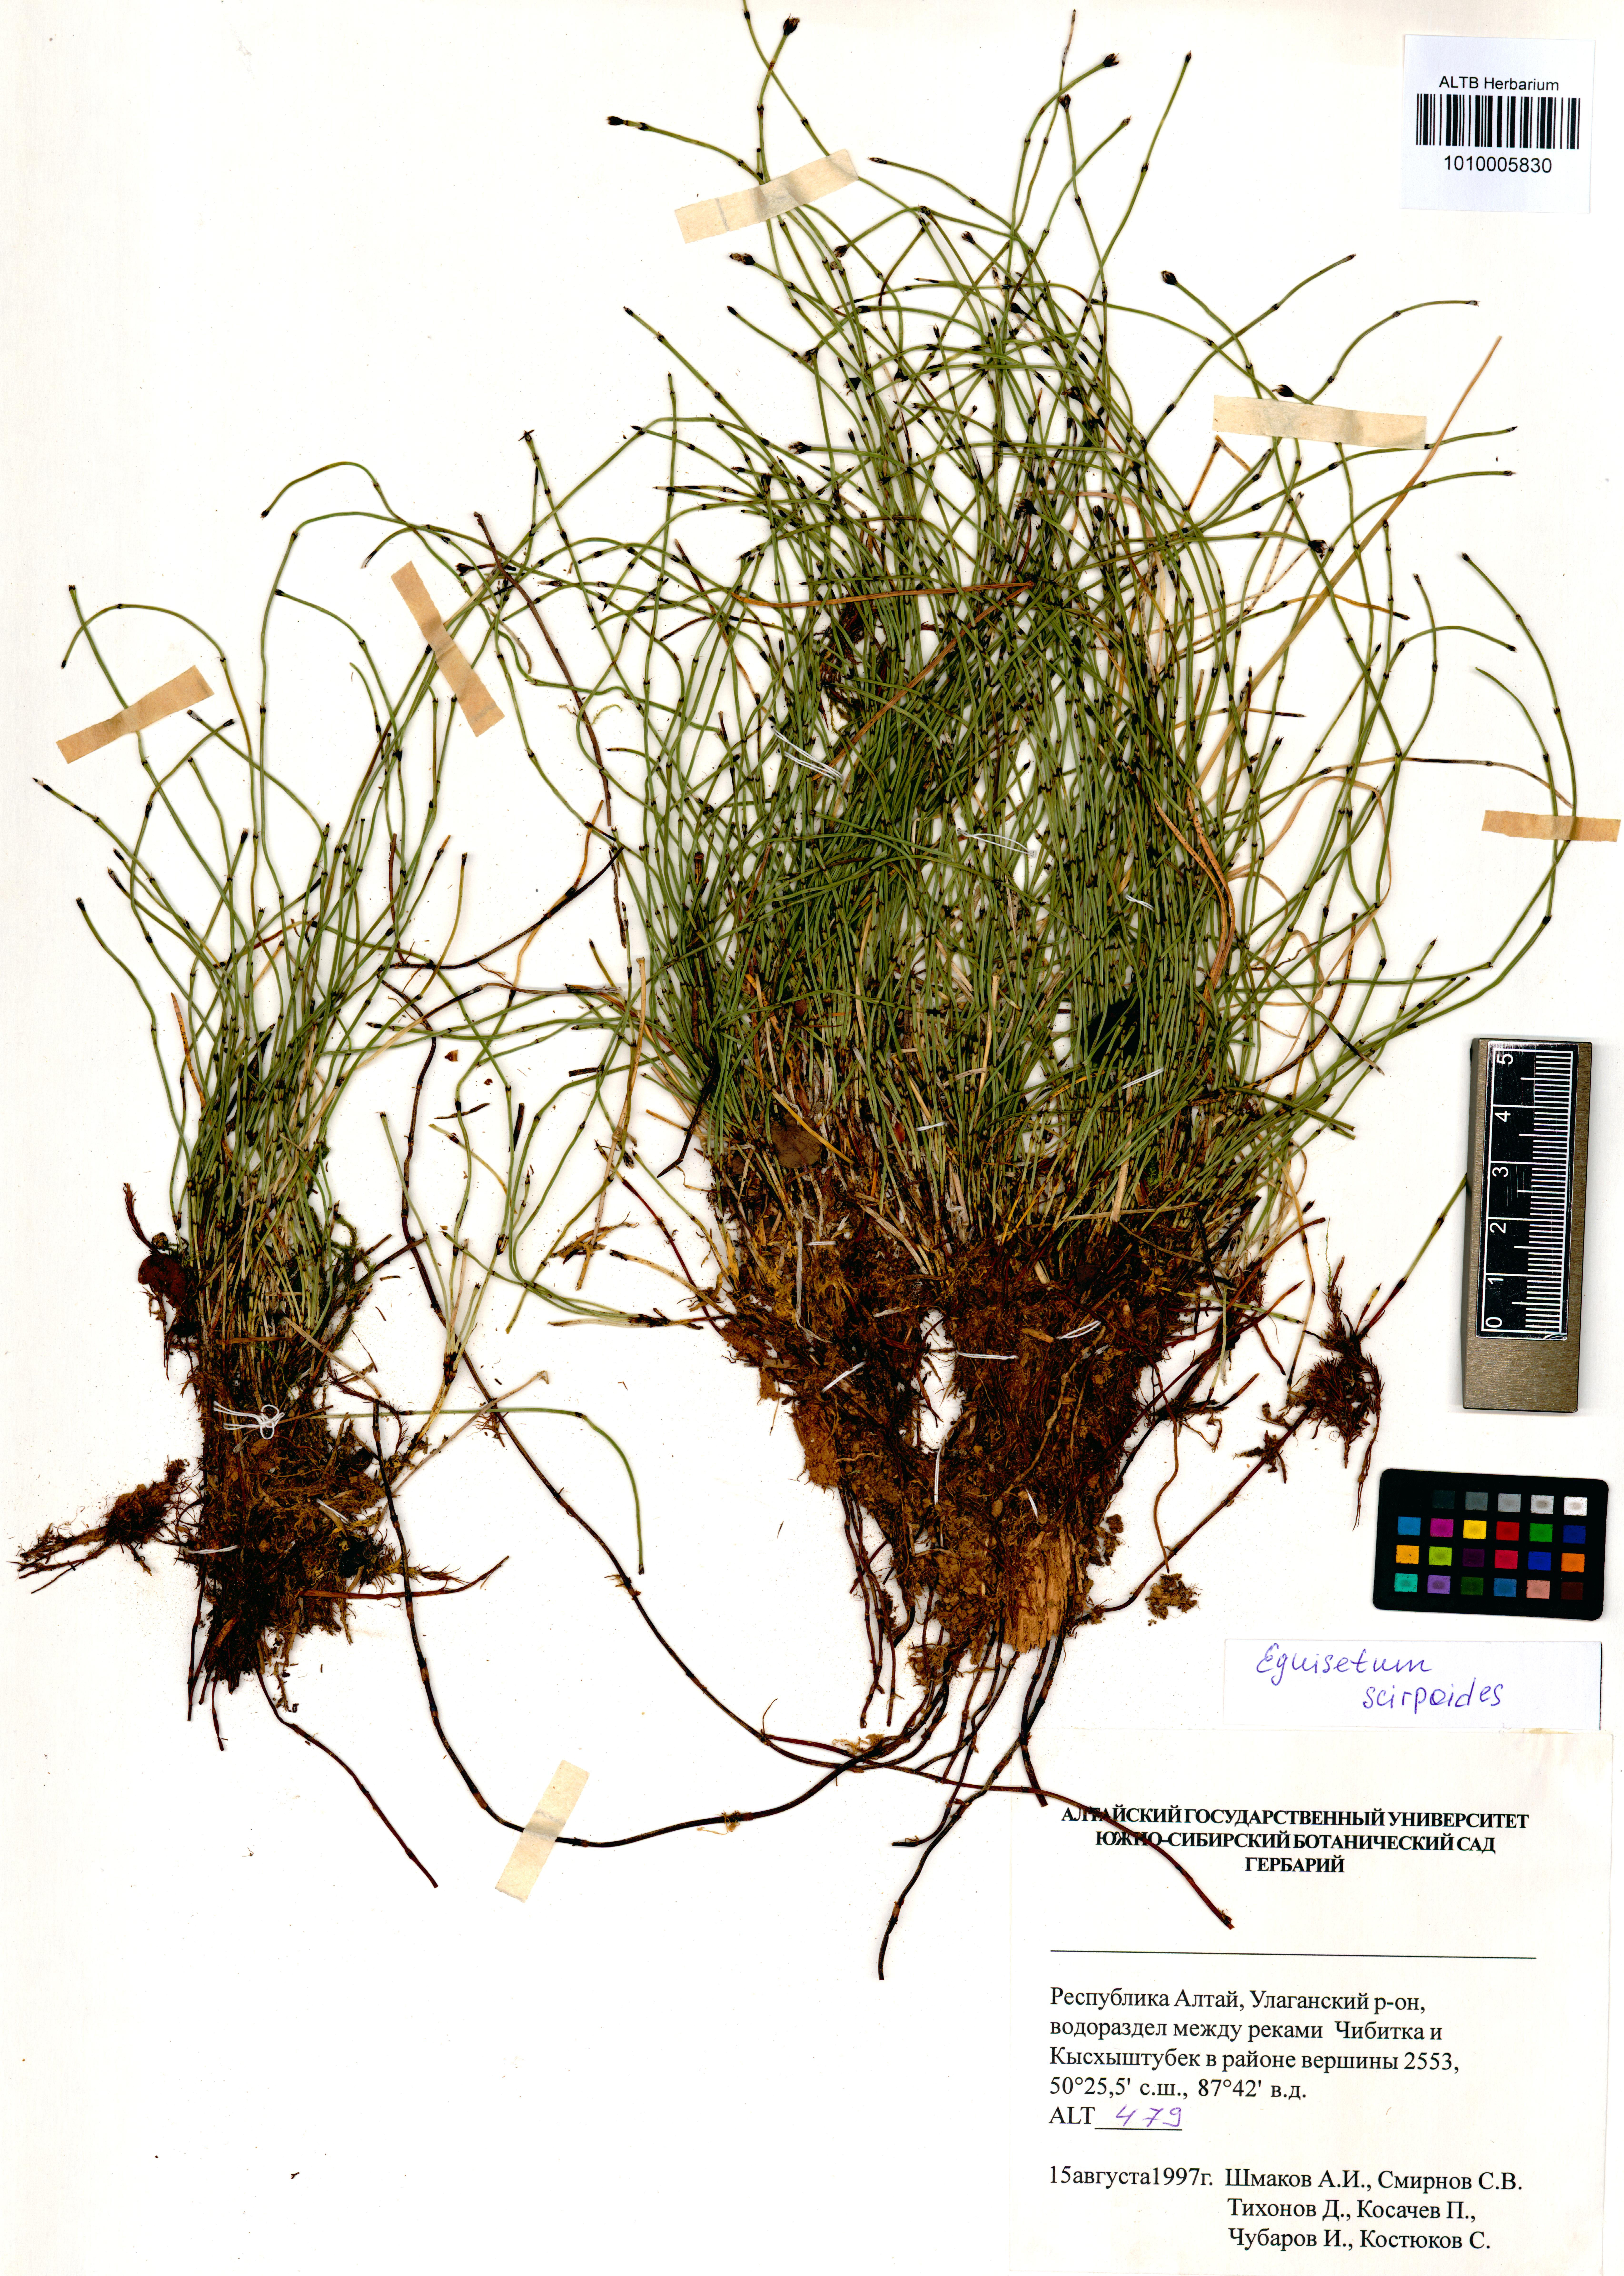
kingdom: Plantae
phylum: Tracheophyta
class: Polypodiopsida
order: Equisetales
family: Equisetaceae
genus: Equisetum
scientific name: Equisetum scirpoides
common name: Delicate horsetail
